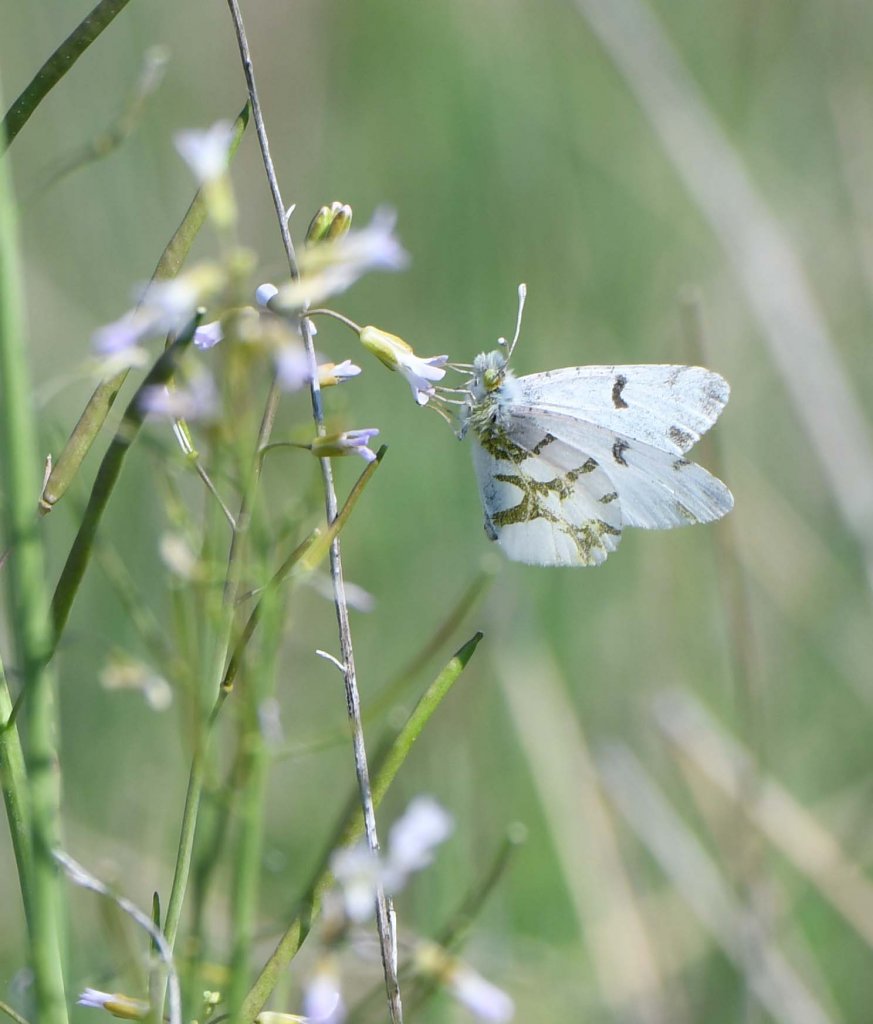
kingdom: Animalia
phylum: Arthropoda
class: Insecta
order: Lepidoptera
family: Pieridae
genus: Euchloe
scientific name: Euchloe olympia
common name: Olympia Marble
